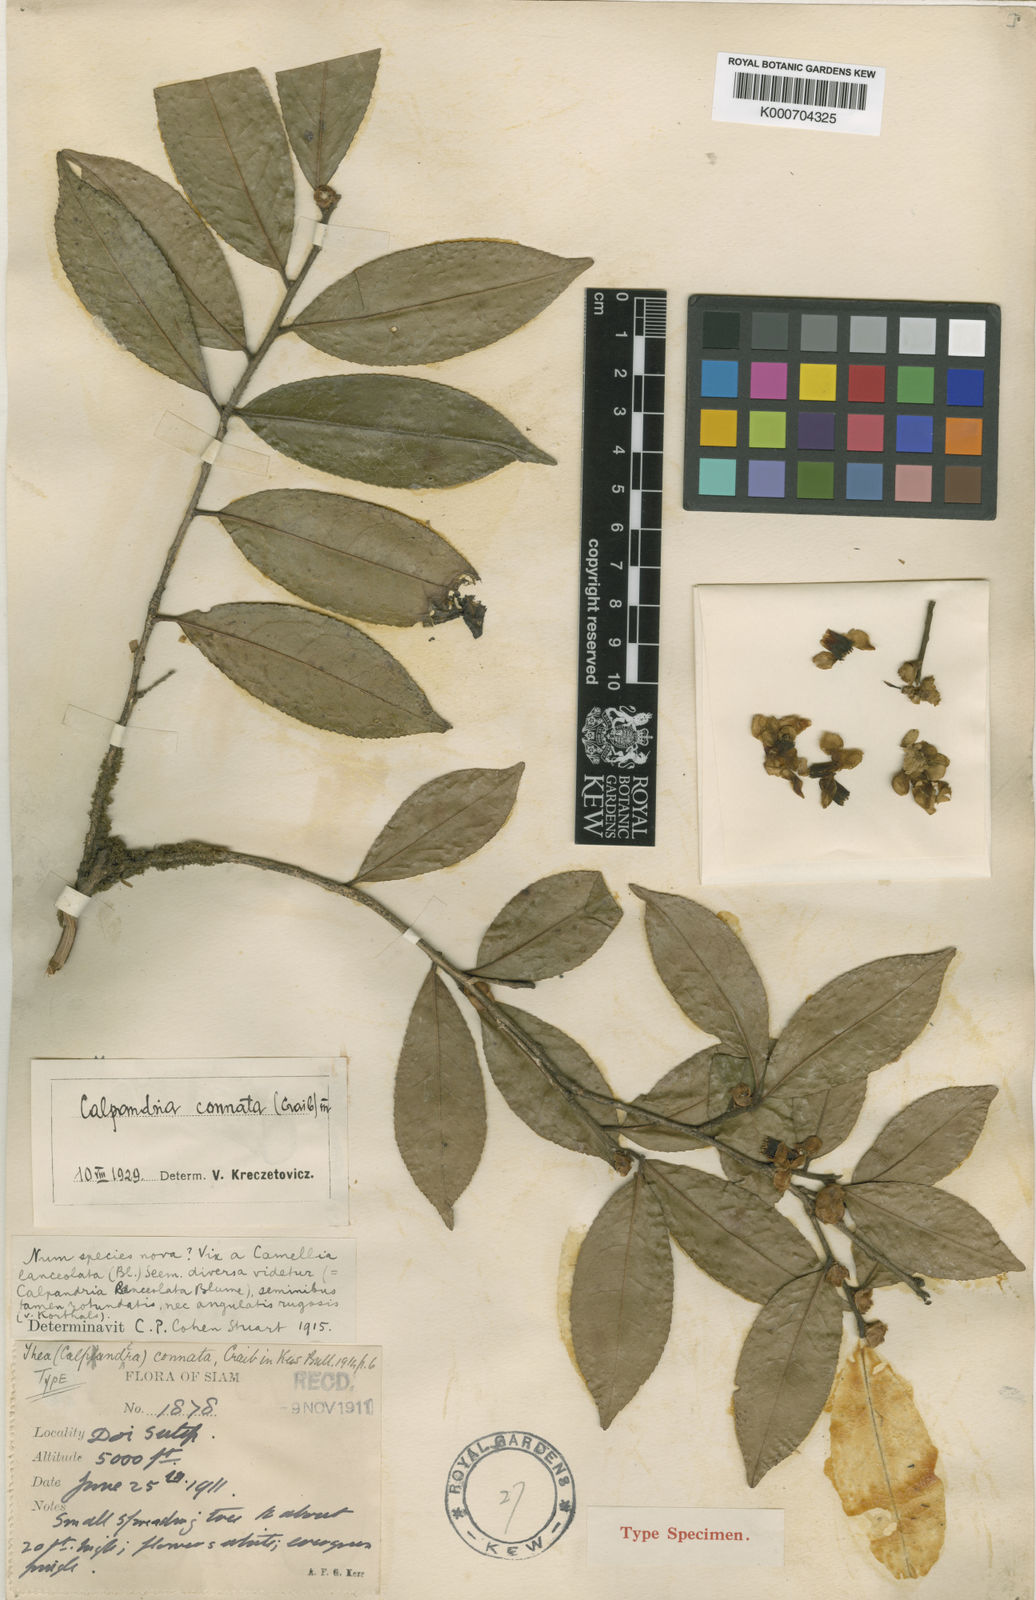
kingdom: Plantae
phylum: Tracheophyta
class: Magnoliopsida
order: Ericales
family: Theaceae
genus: Camellia
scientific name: Camellia connata
